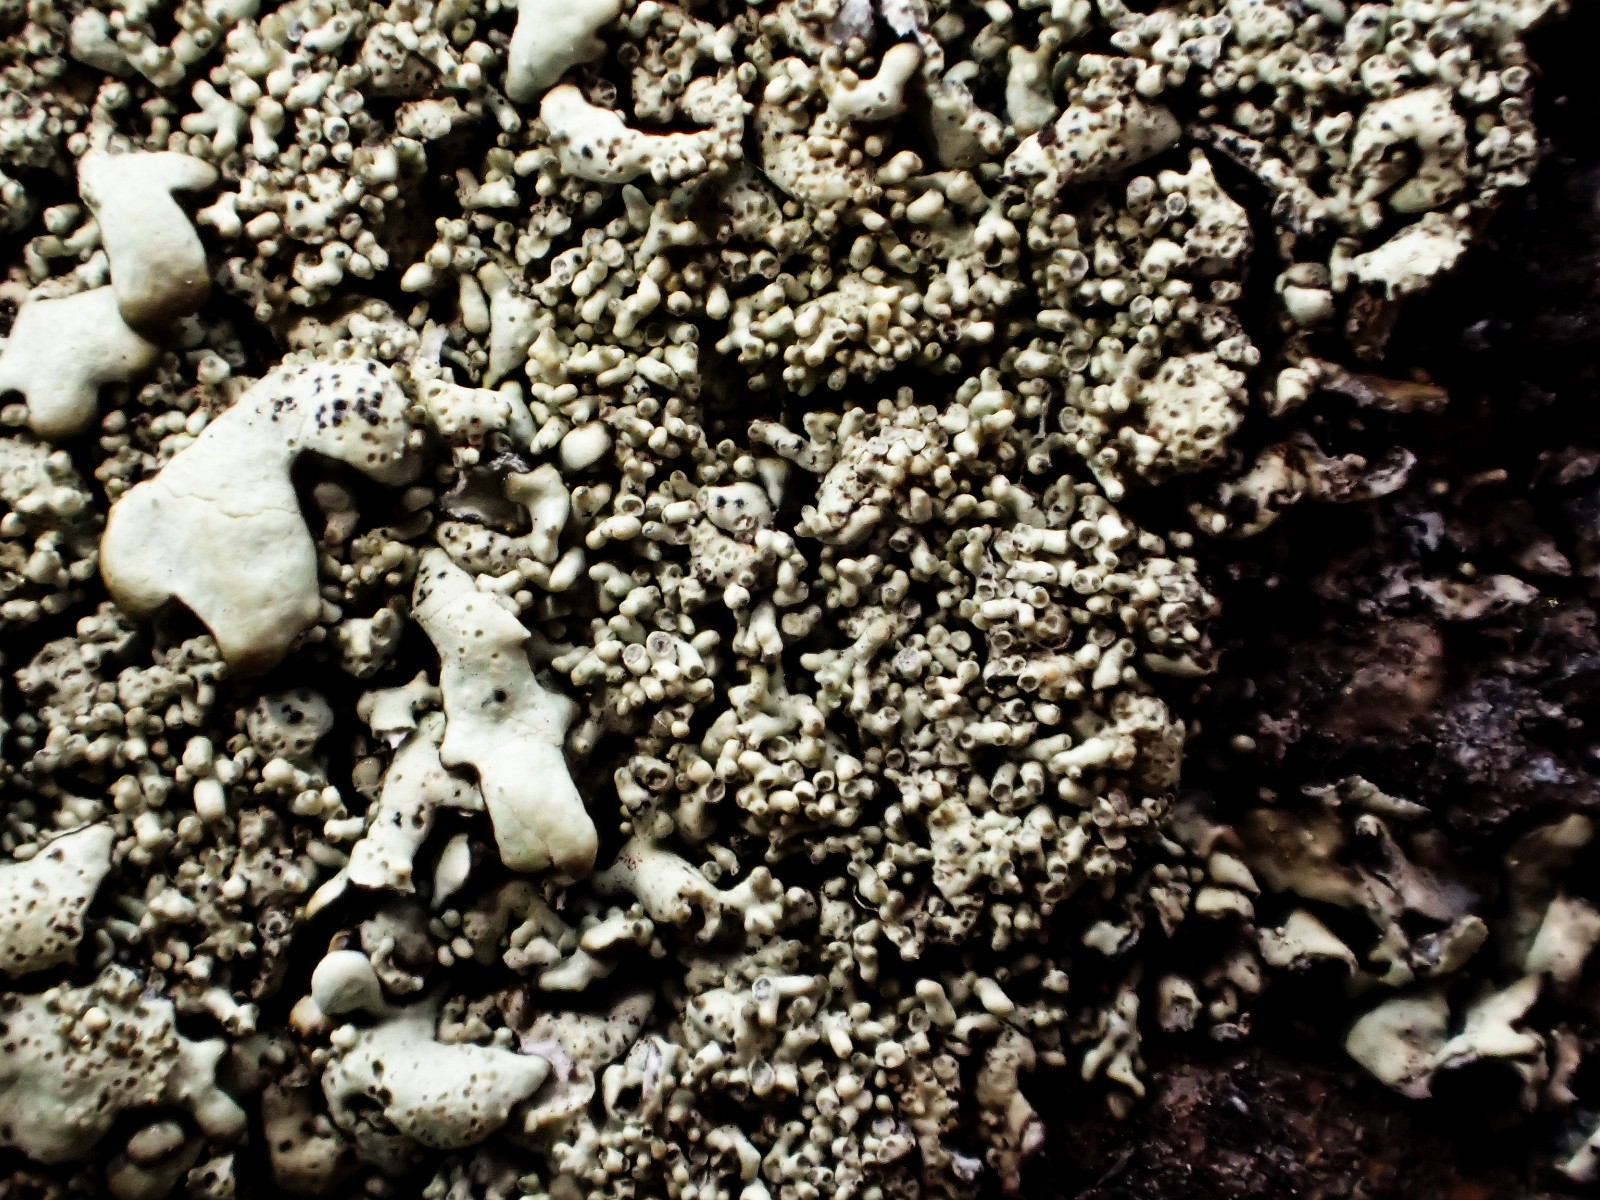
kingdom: Fungi
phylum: Ascomycota
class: Lecanoromycetes
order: Lecanorales
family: Parmeliaceae
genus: Xanthoparmelia
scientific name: Xanthoparmelia conspersa
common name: messing-skållav
